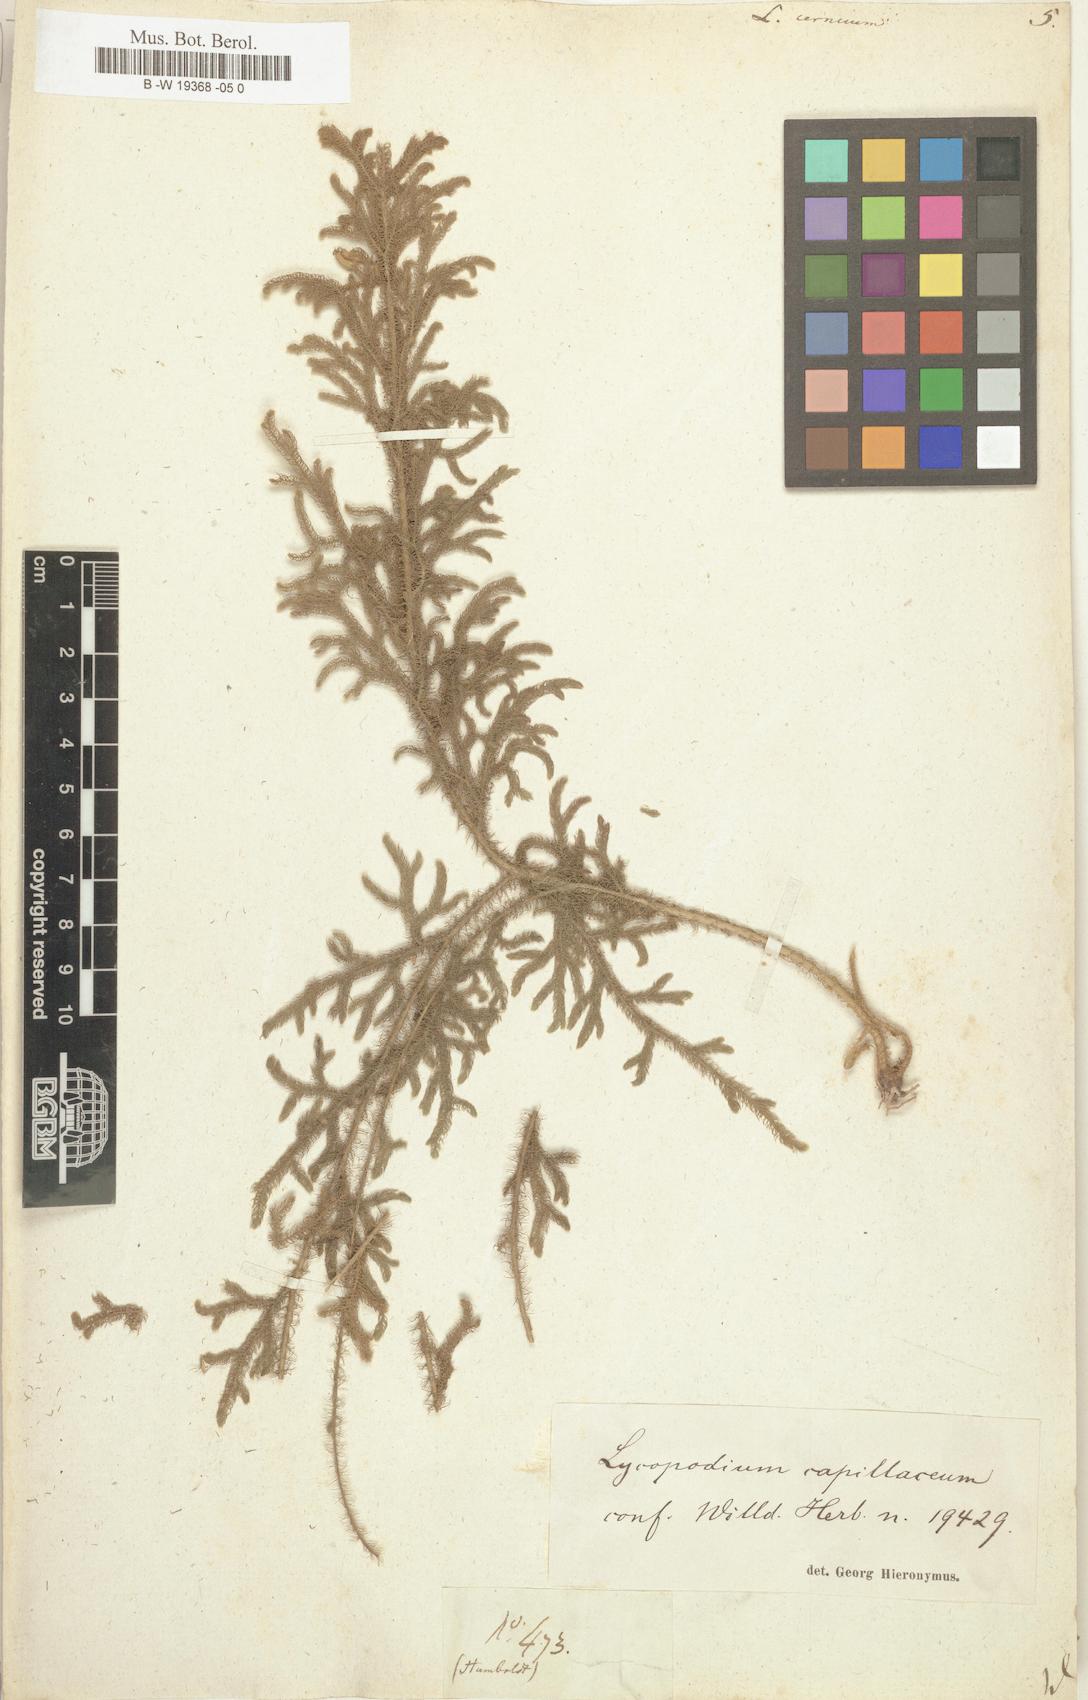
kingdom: Plantae
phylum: Tracheophyta
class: Lycopodiopsida
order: Lycopodiales
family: Lycopodiaceae
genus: Palhinhaea
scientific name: Palhinhaea cernua
